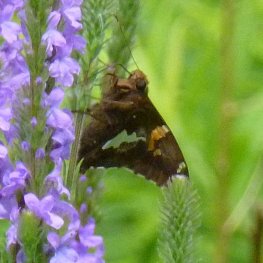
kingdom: Animalia
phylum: Arthropoda
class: Insecta
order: Lepidoptera
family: Hesperiidae
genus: Epargyreus
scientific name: Epargyreus clarus
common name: Silver-spotted Skipper
